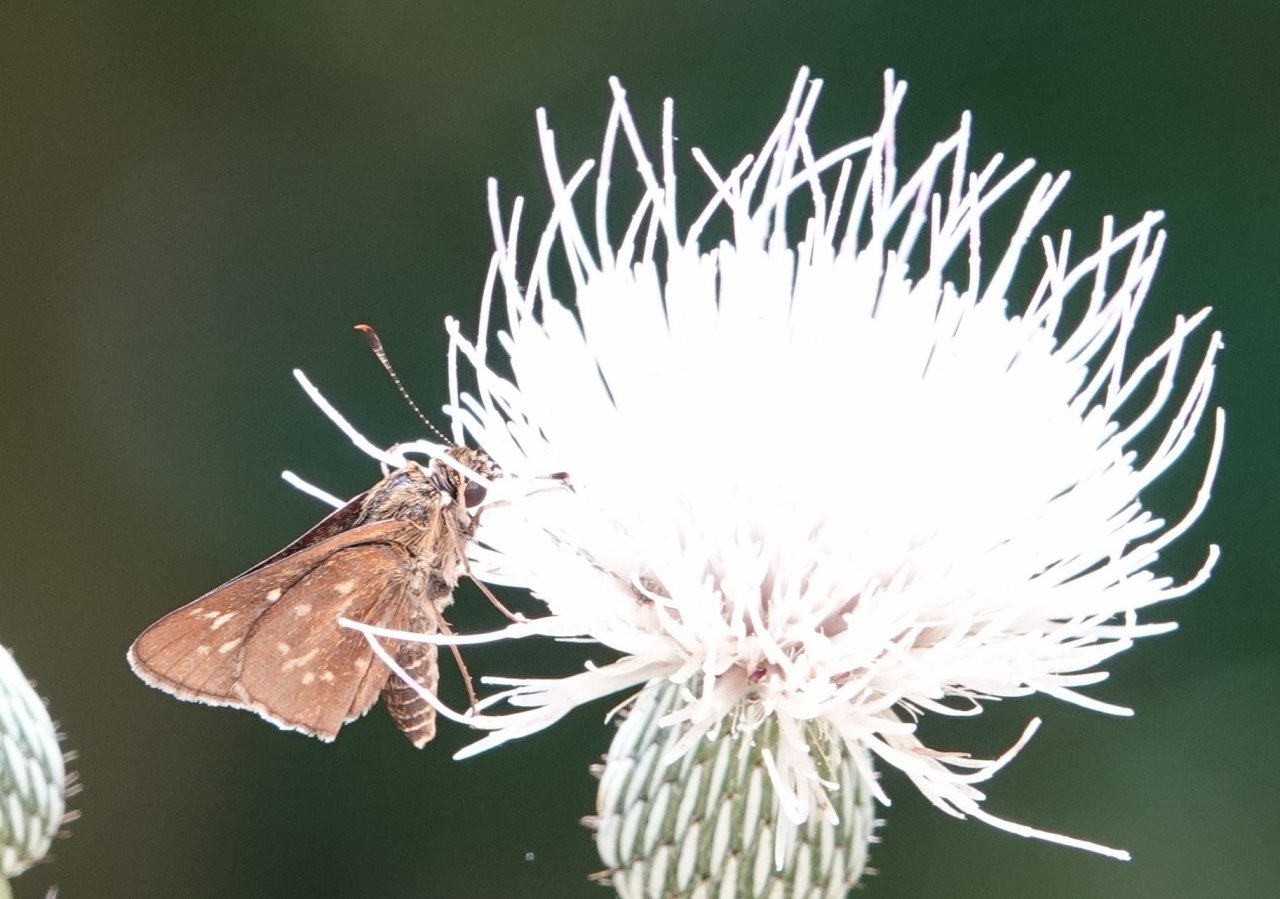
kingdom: Animalia
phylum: Arthropoda
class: Insecta
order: Lepidoptera
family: Hesperiidae
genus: Mastor
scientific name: Mastor carolina
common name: Reversed Roadside-skipper
